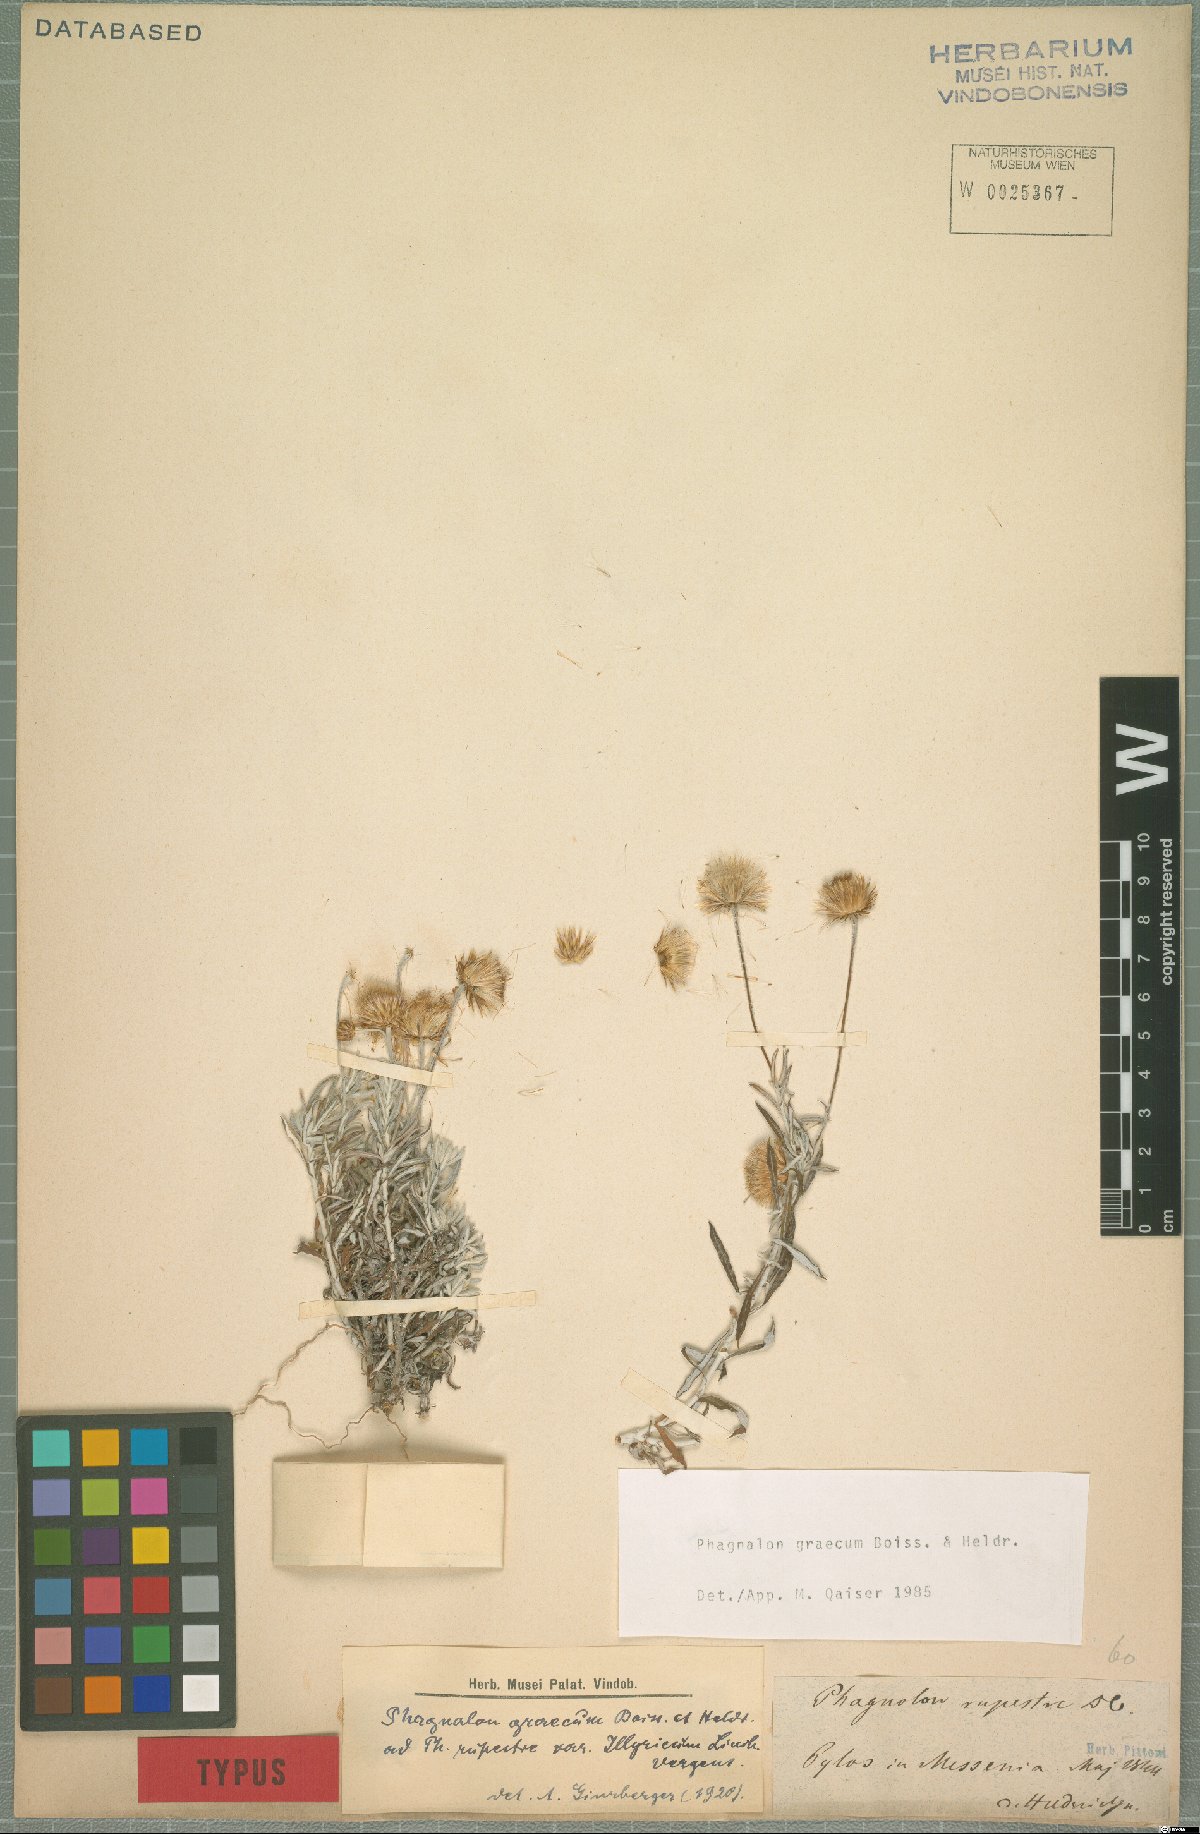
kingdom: Plantae
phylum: Tracheophyta
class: Magnoliopsida
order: Asterales
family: Asteraceae
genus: Phagnalon
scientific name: Phagnalon graecum
